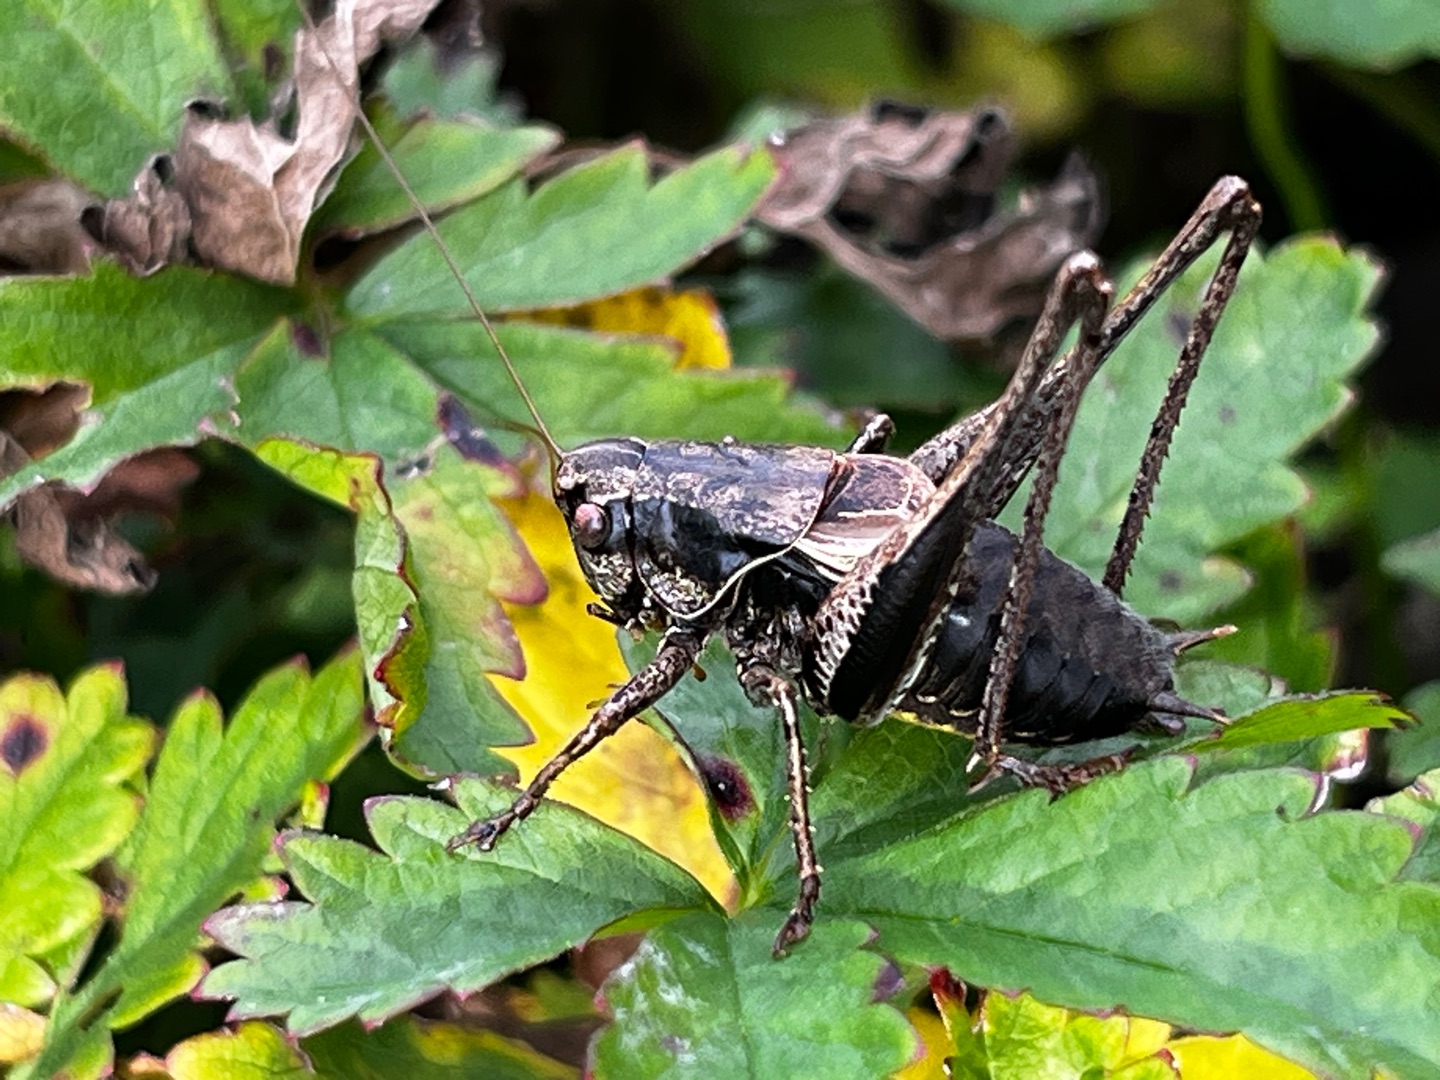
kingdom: Animalia
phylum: Arthropoda
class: Insecta
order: Orthoptera
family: Tettigoniidae
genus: Pholidoptera
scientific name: Pholidoptera griseoaptera
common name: Buskgræshoppe
